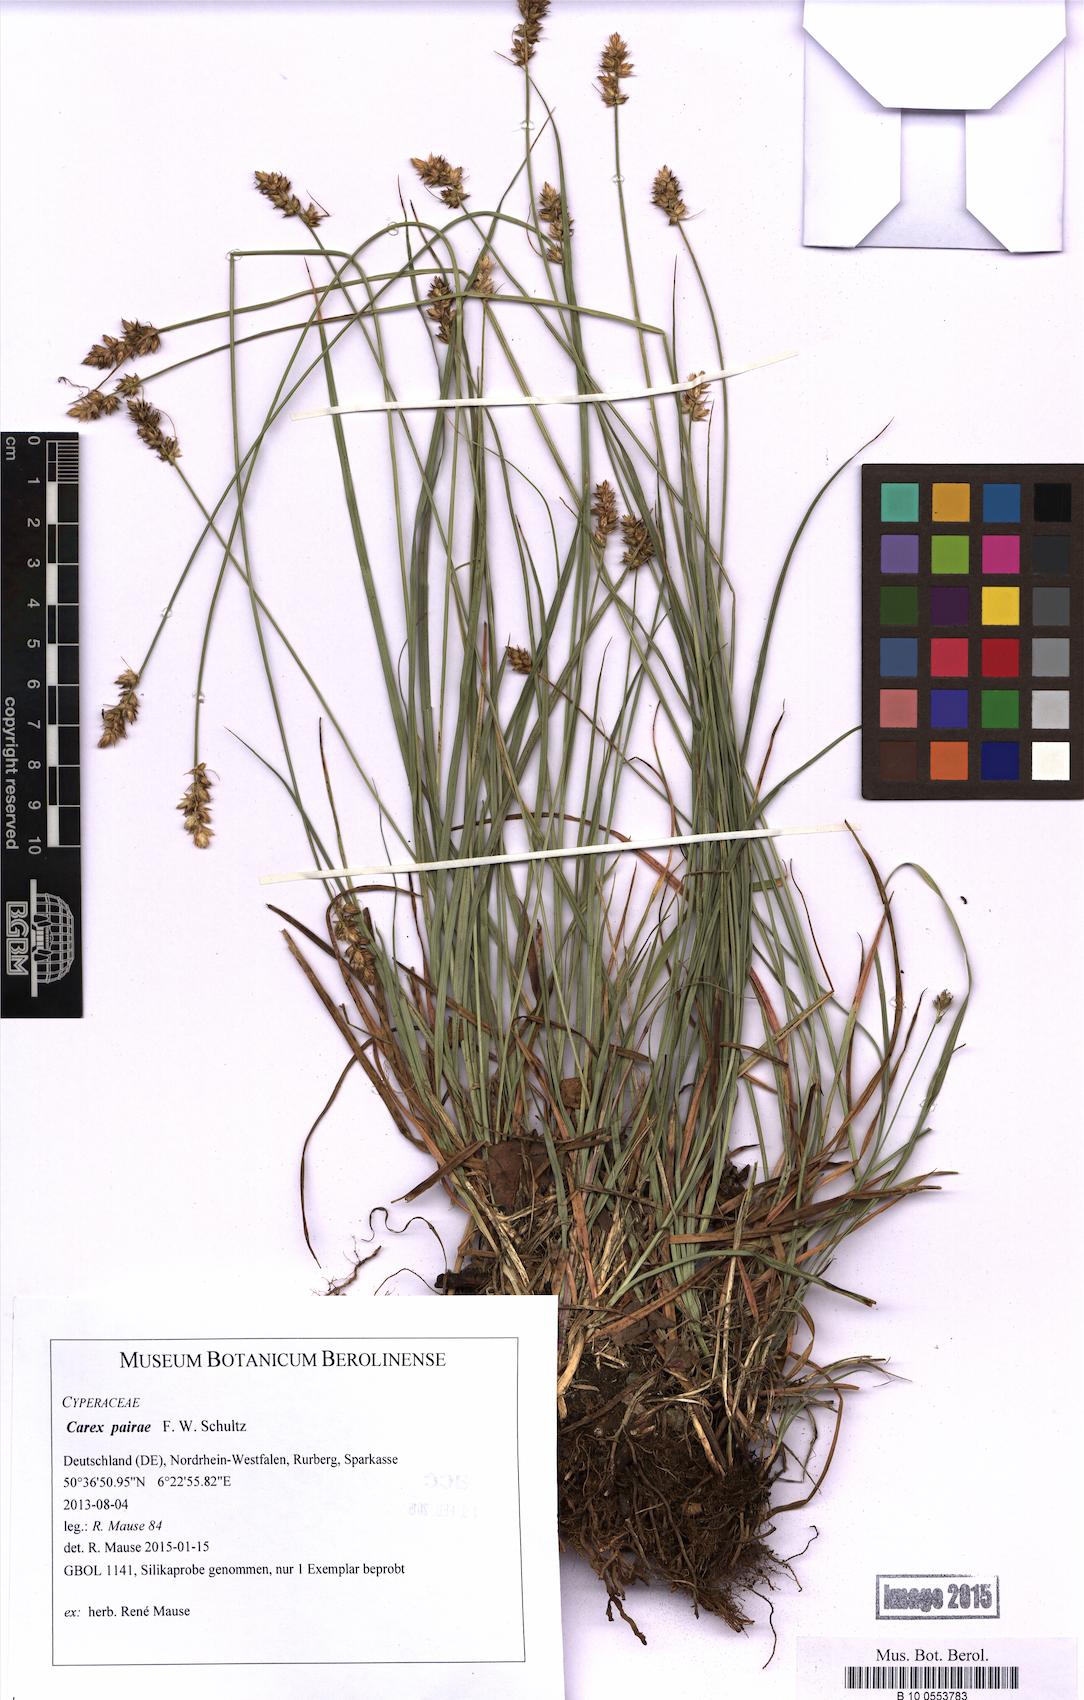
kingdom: Plantae
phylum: Tracheophyta
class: Liliopsida
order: Poales
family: Cyperaceae
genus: Carex
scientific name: Carex pairae
